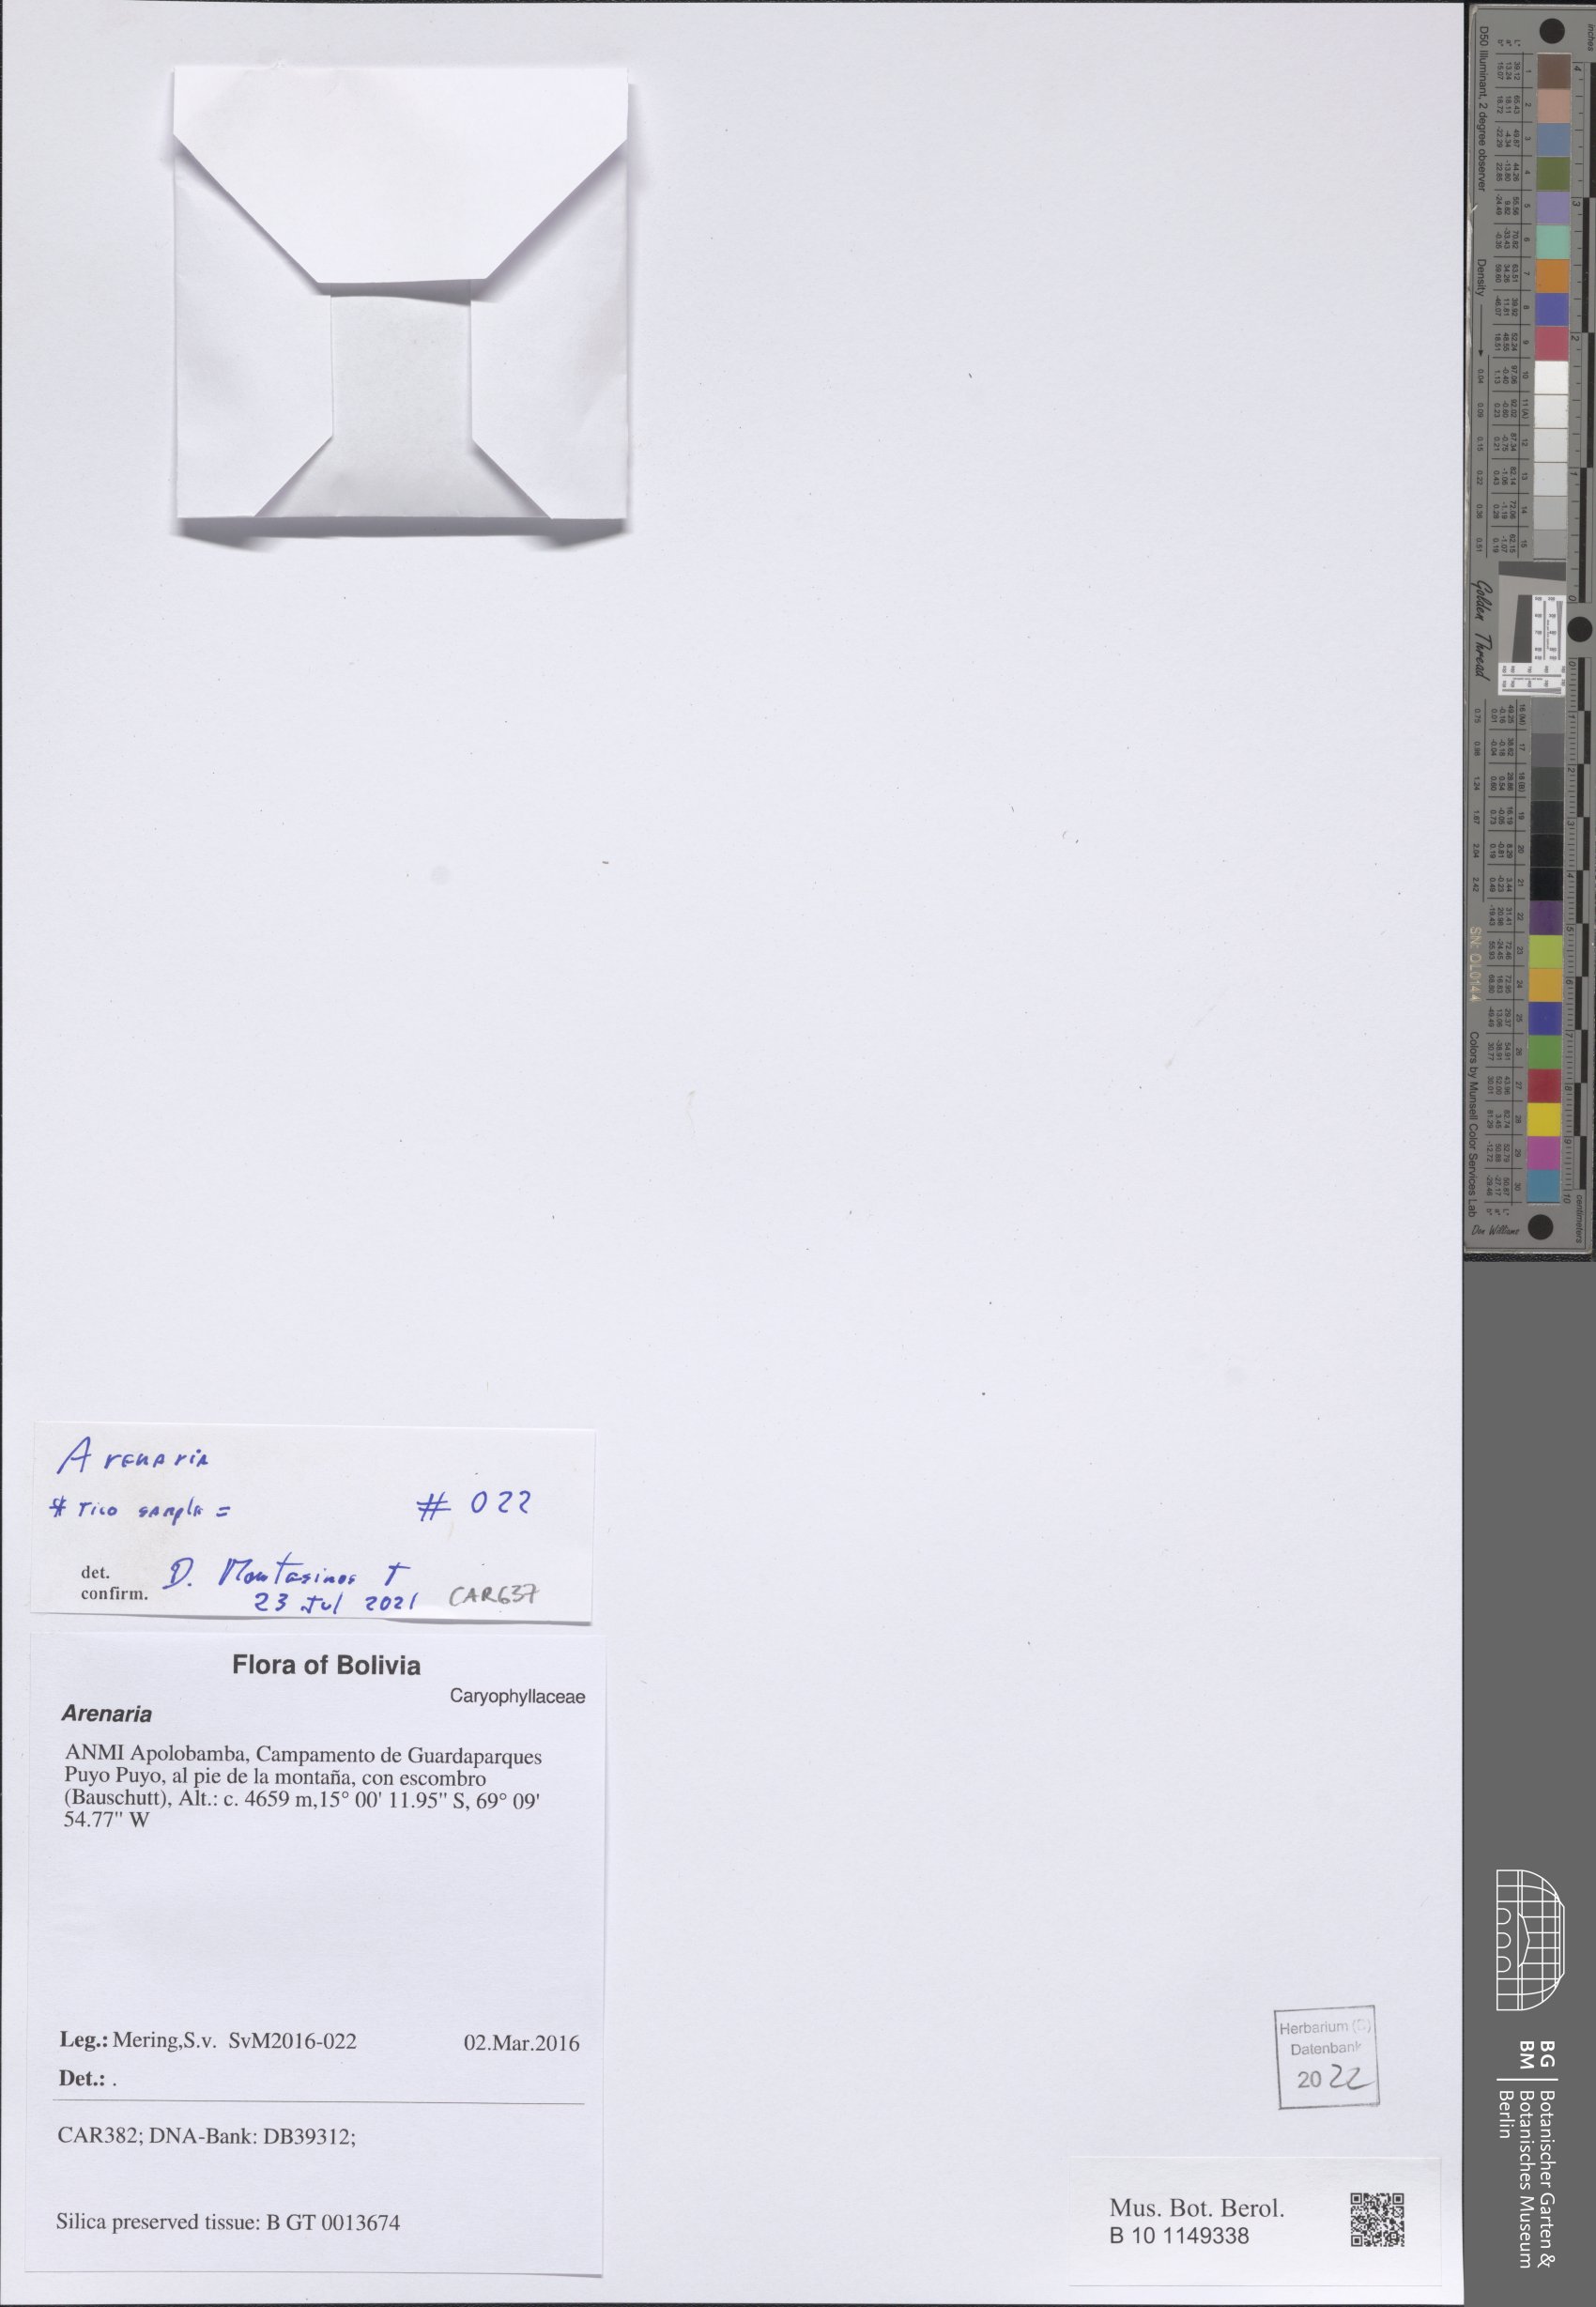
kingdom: Plantae
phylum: Tracheophyta
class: Magnoliopsida
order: Caryophyllales
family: Caryophyllaceae
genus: Arenaria
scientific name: Arenaria
